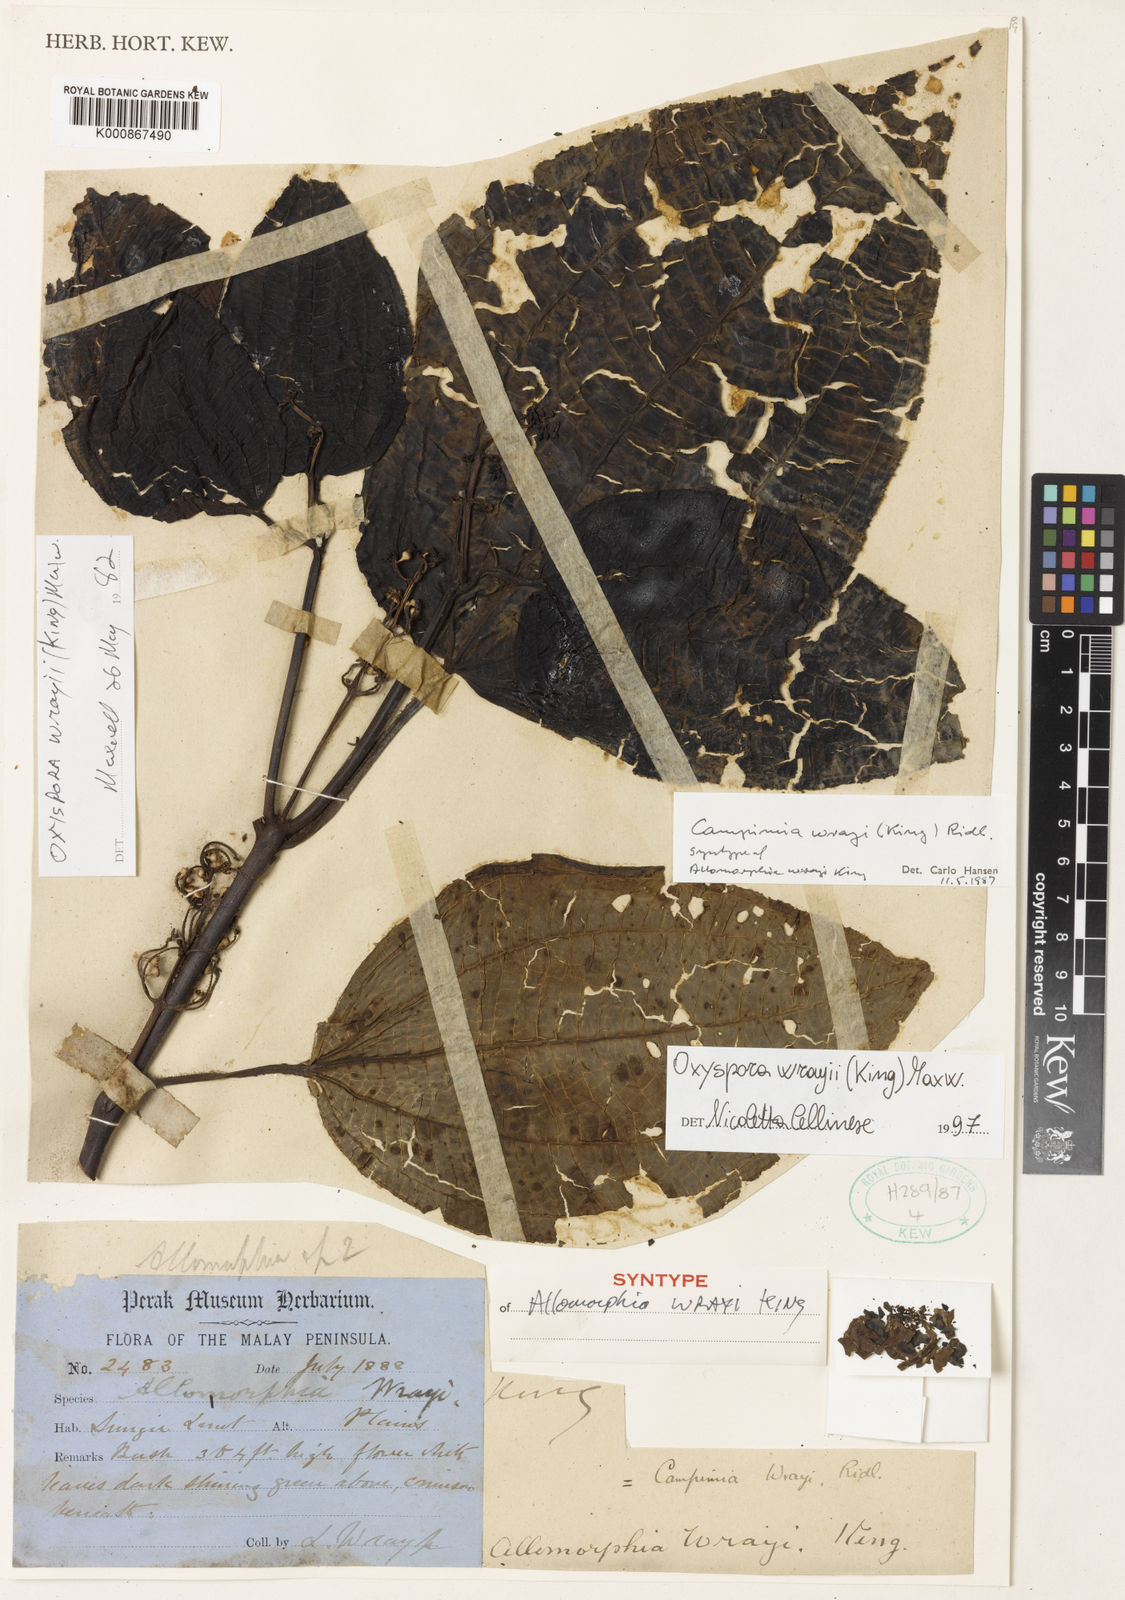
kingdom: Plantae
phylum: Tracheophyta
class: Magnoliopsida
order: Myrtales
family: Melastomataceae
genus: Campimia
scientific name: Campimia wrayi
